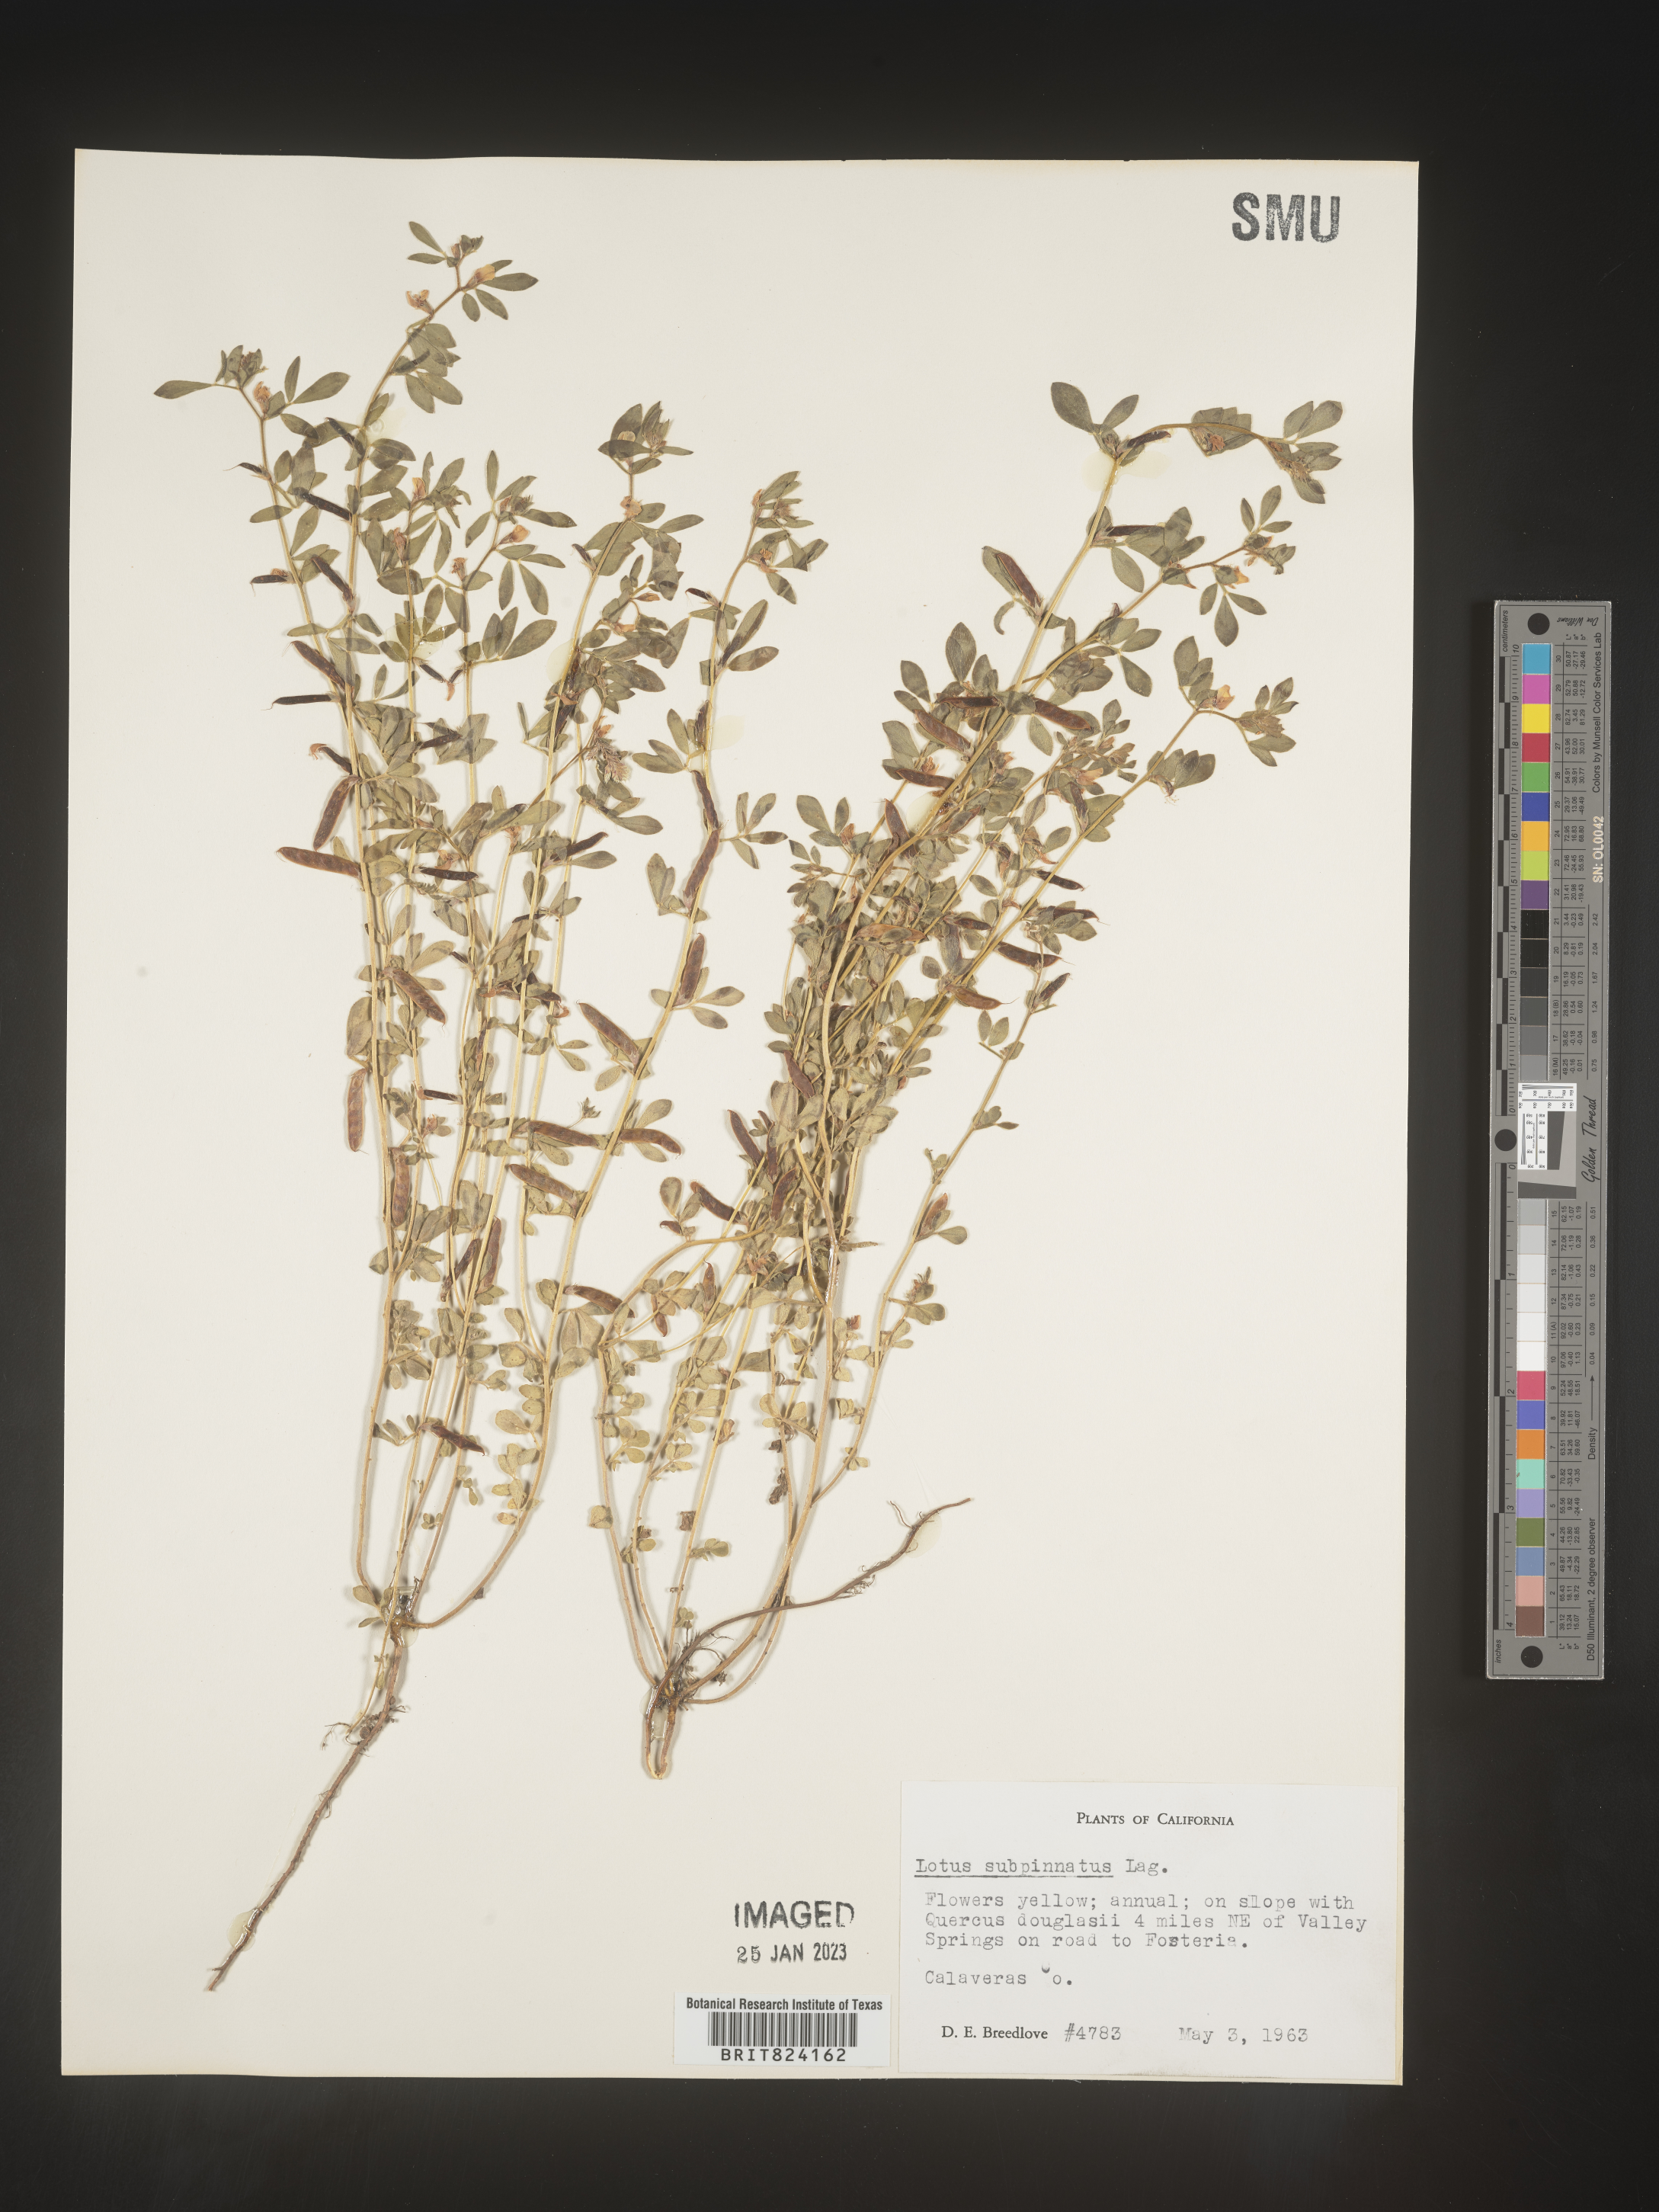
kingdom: Plantae
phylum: Tracheophyta
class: Magnoliopsida
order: Fabales
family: Fabaceae
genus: Lotus
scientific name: Lotus
